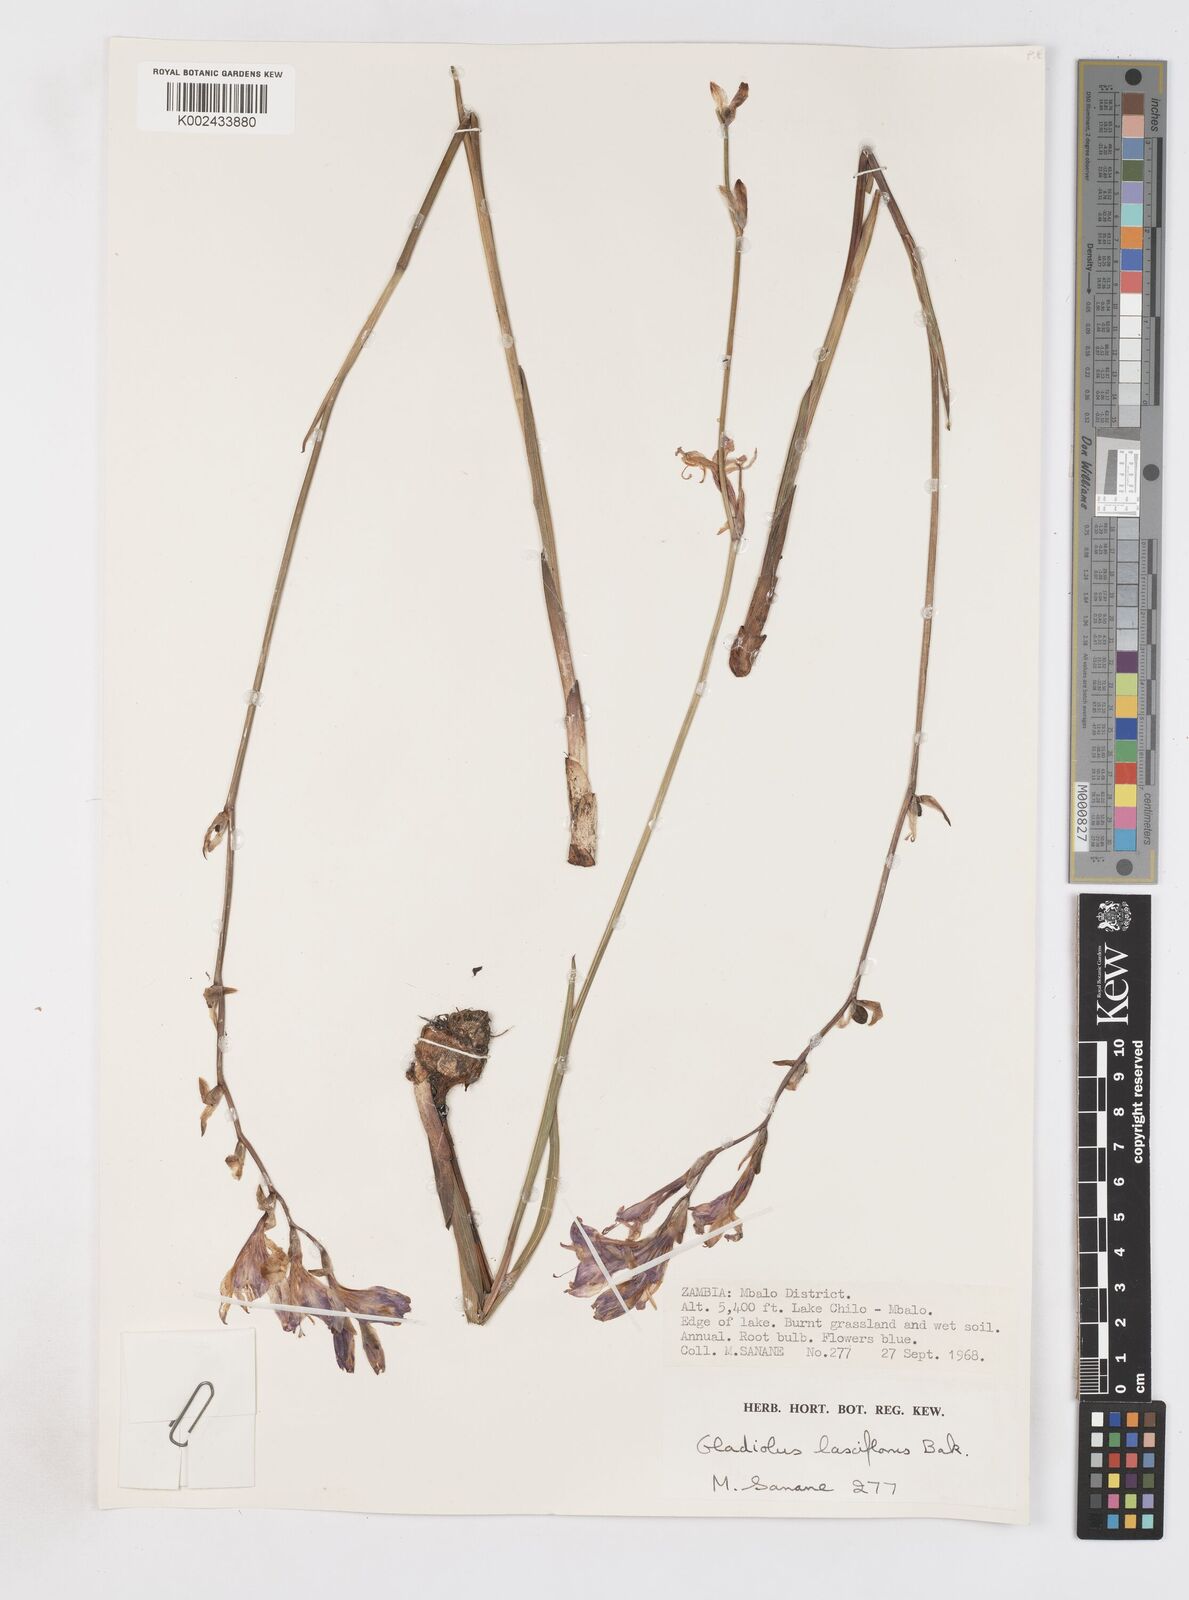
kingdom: Plantae
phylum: Tracheophyta
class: Liliopsida
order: Asparagales
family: Iridaceae
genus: Gladiolus
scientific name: Gladiolus laxiflorus
